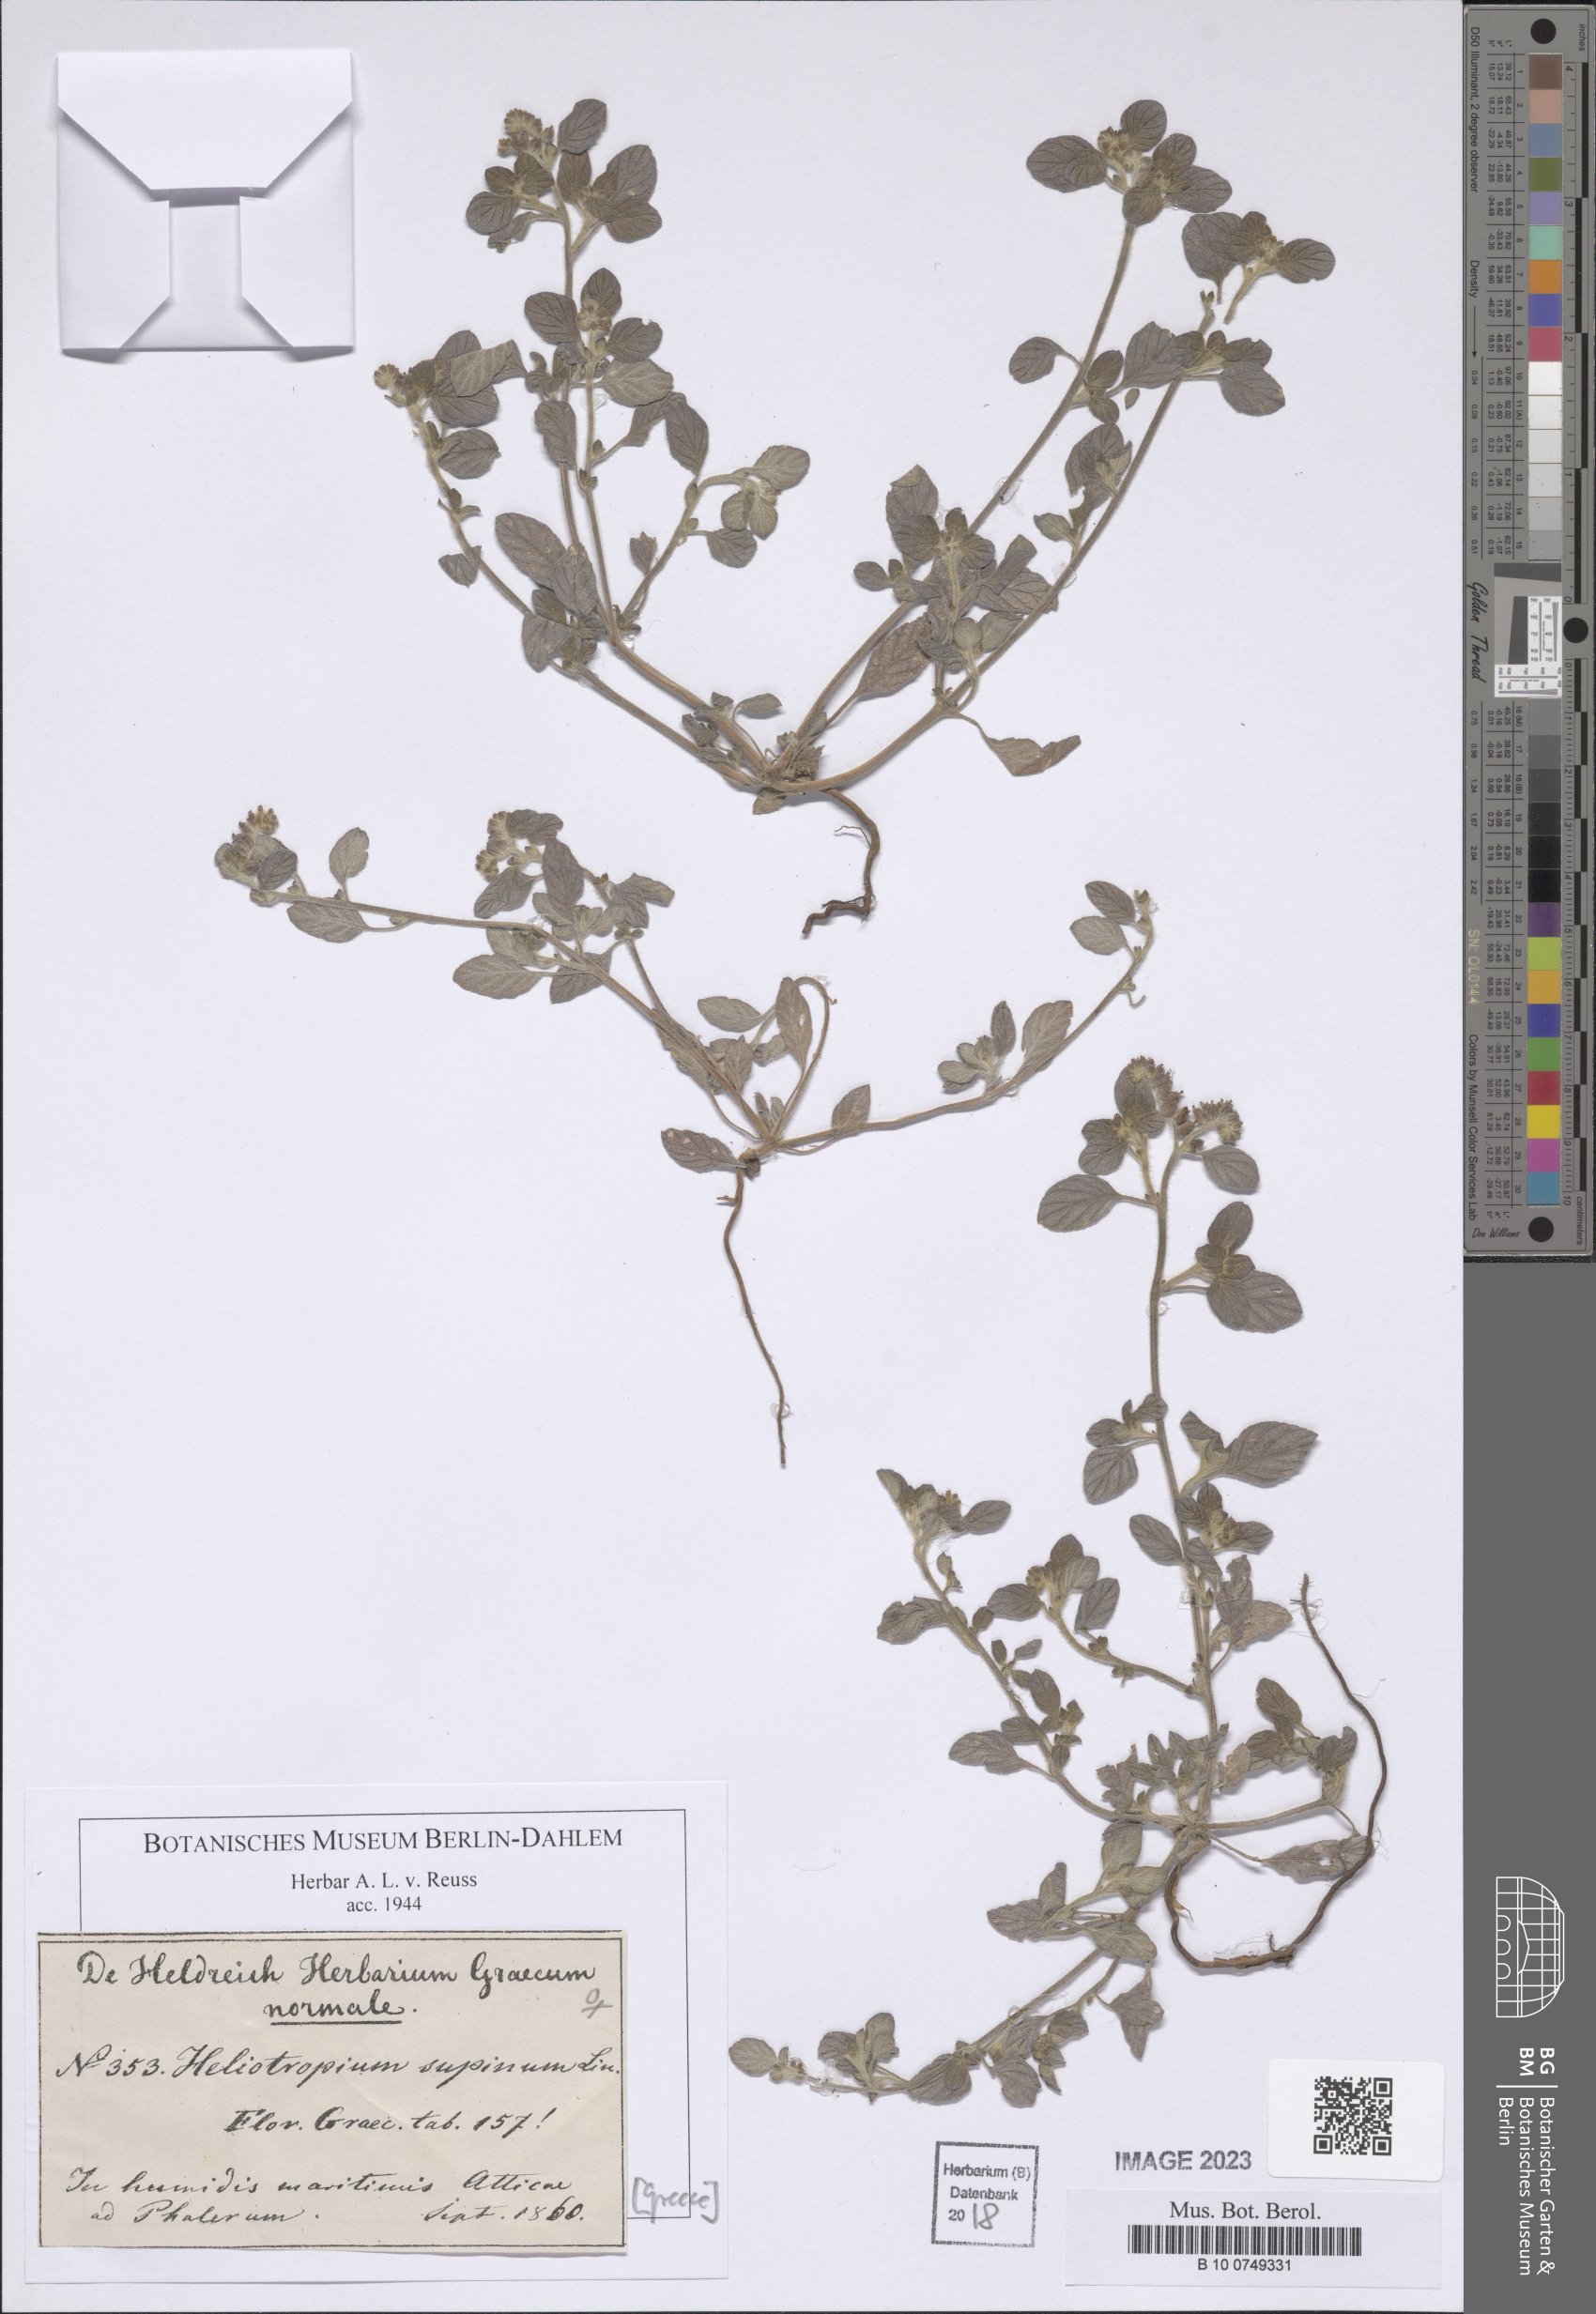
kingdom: Plantae
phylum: Tracheophyta
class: Magnoliopsida
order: Boraginales
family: Heliotropiaceae
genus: Heliotropium
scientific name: Heliotropium supinum
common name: Dwarf heliotrope
